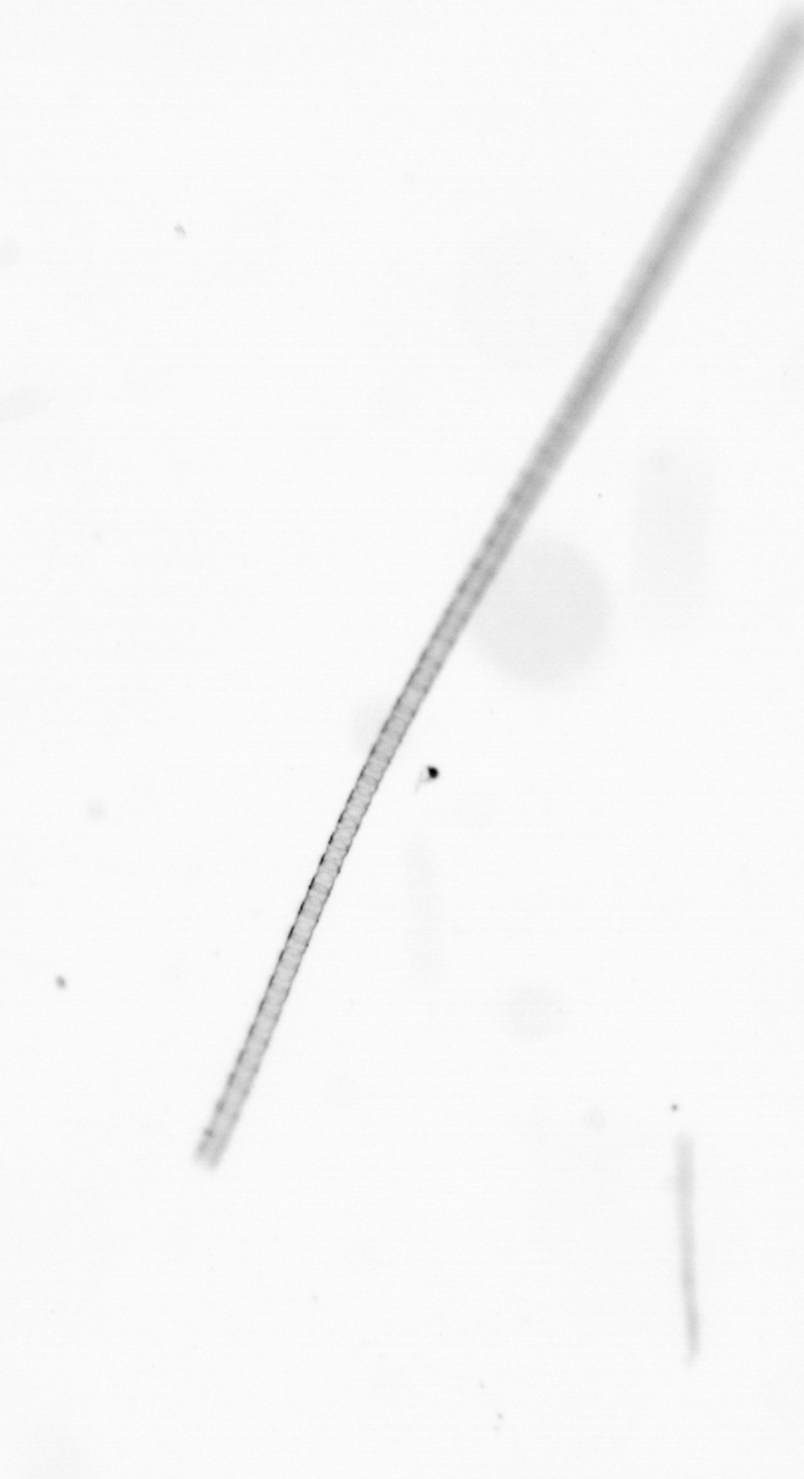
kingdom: Chromista
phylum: Ochrophyta
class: Bacillariophyceae
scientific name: Bacillariophyceae
